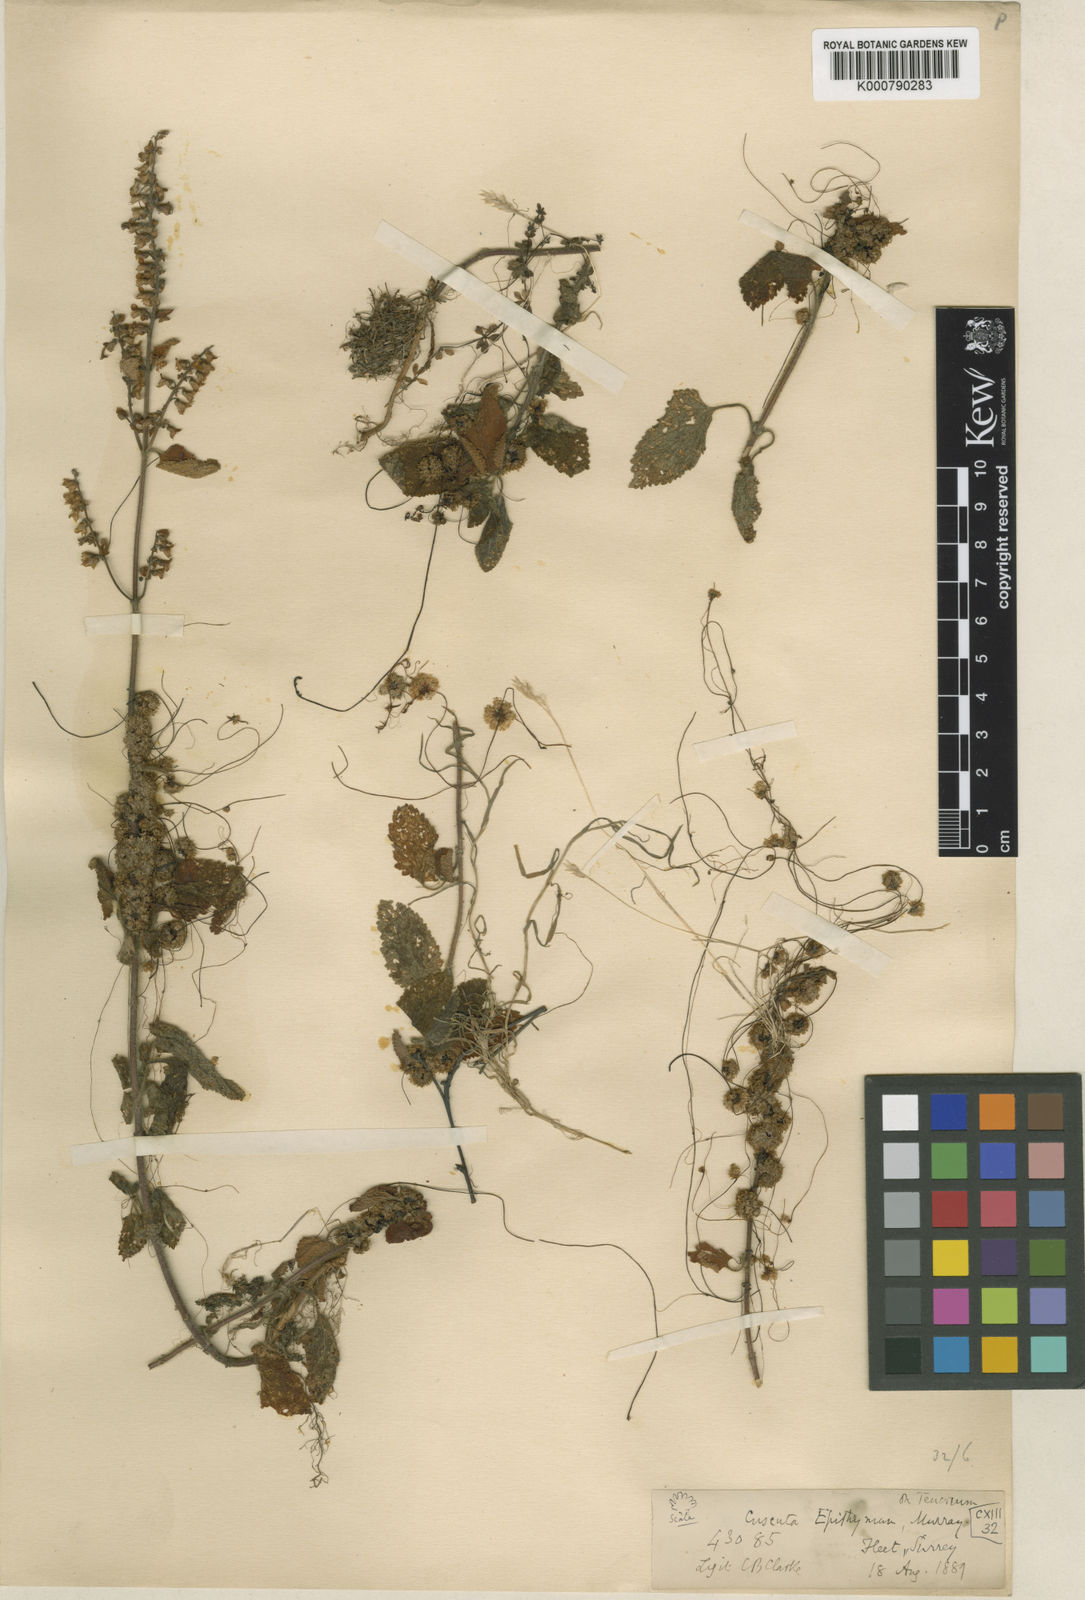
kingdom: Plantae
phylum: Tracheophyta
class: Magnoliopsida
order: Solanales
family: Convolvulaceae
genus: Cuscuta
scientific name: Cuscuta epithymum
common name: Clover dodder
